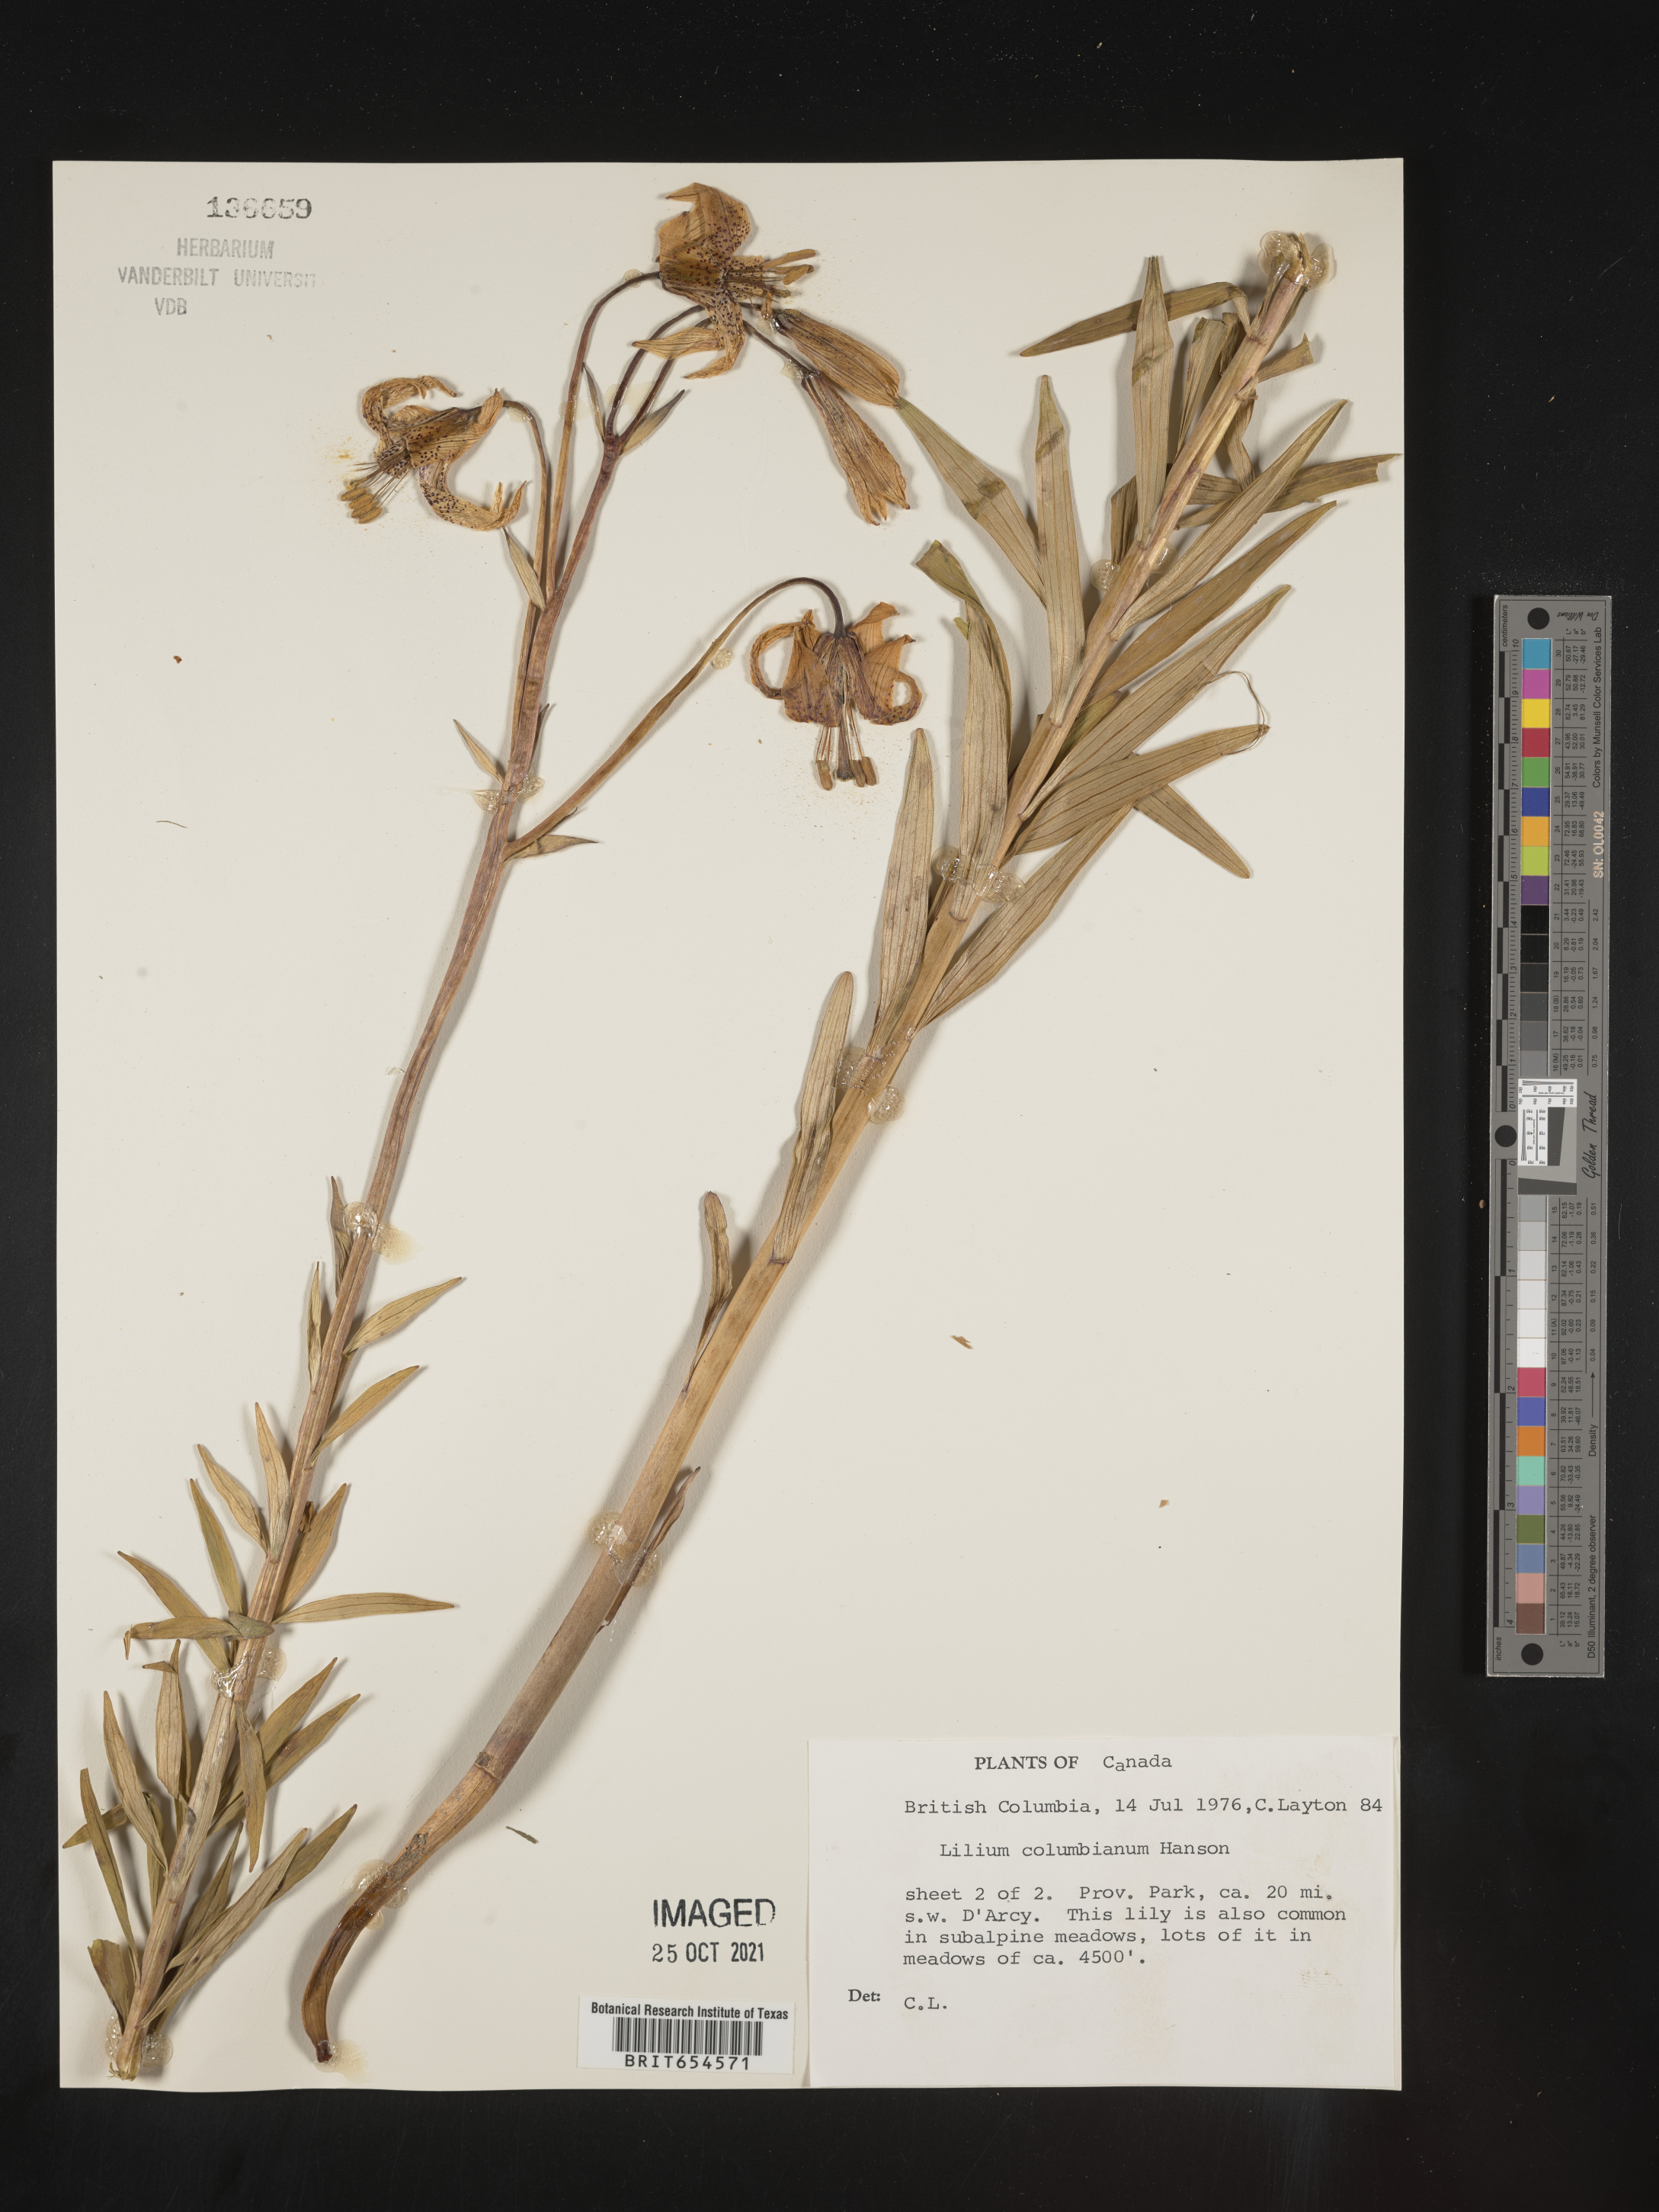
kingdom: Plantae
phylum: Tracheophyta
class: Liliopsida
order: Liliales
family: Liliaceae
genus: Lilium
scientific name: Lilium
